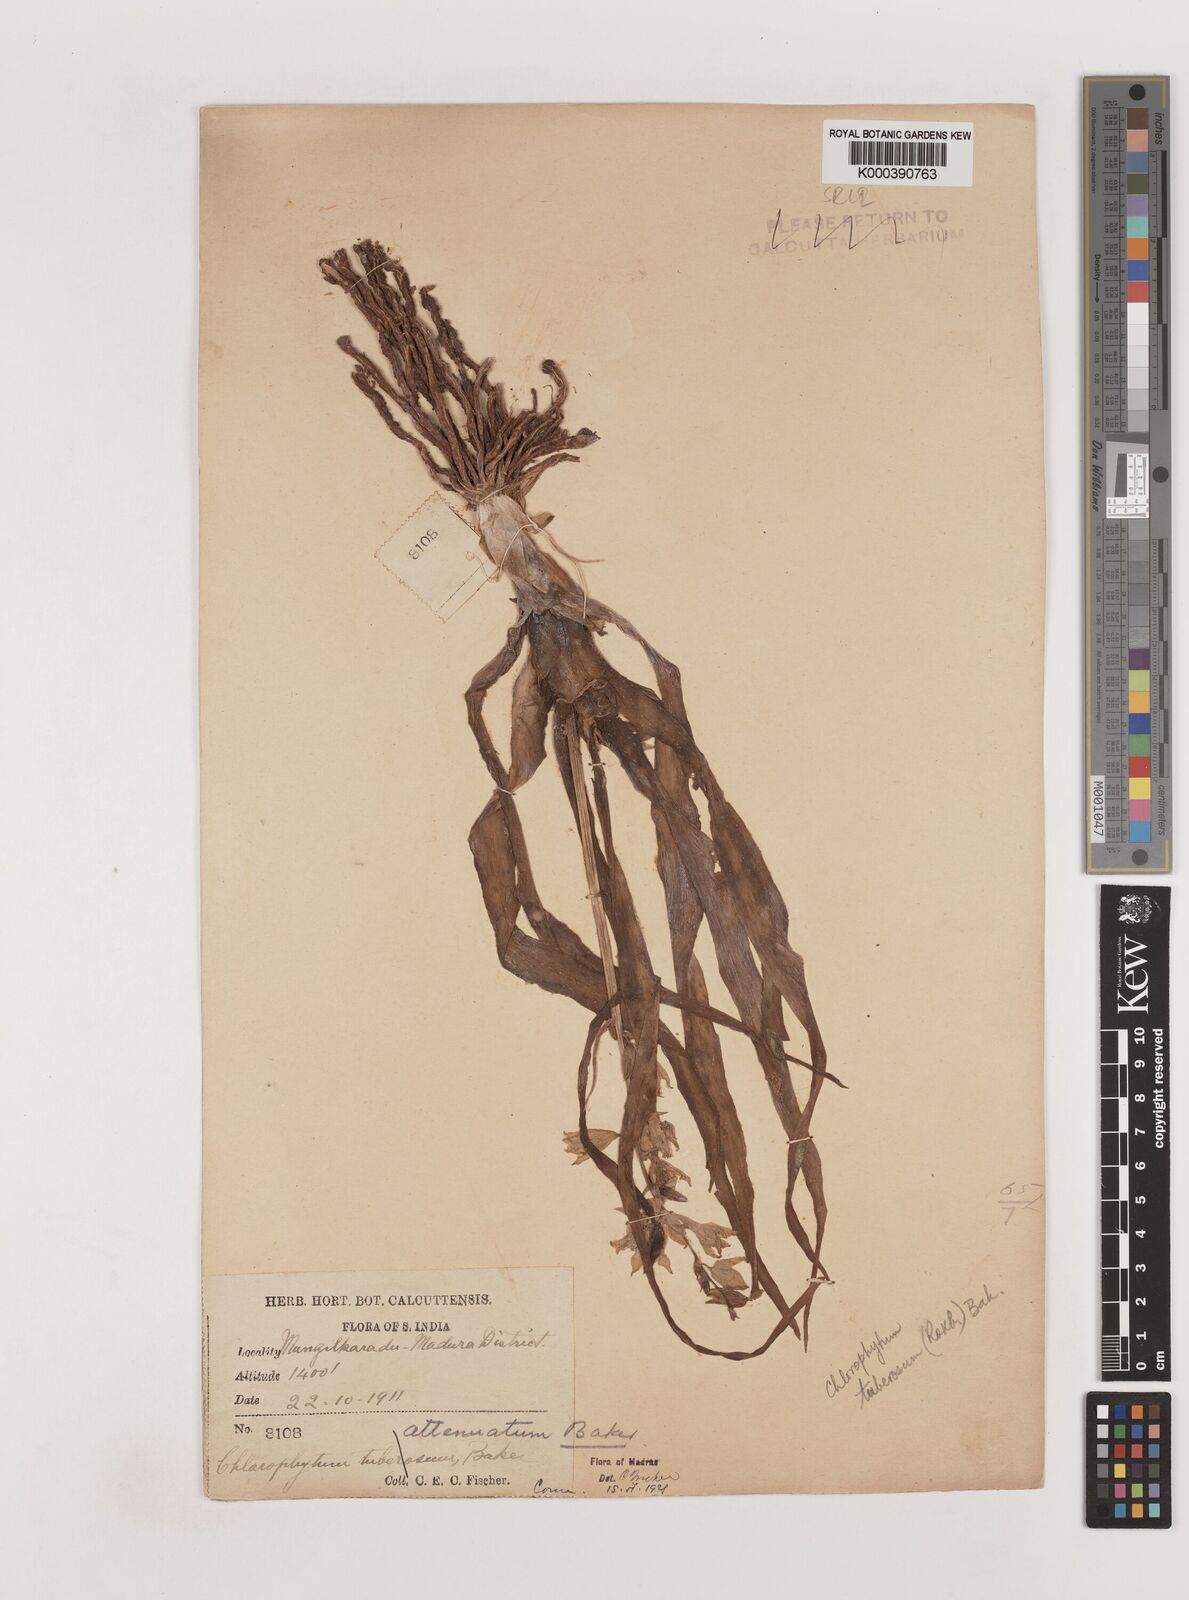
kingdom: Plantae
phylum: Tracheophyta
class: Liliopsida
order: Asparagales
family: Asparagaceae
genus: Chlorophytum
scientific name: Chlorophytum tuberosum
